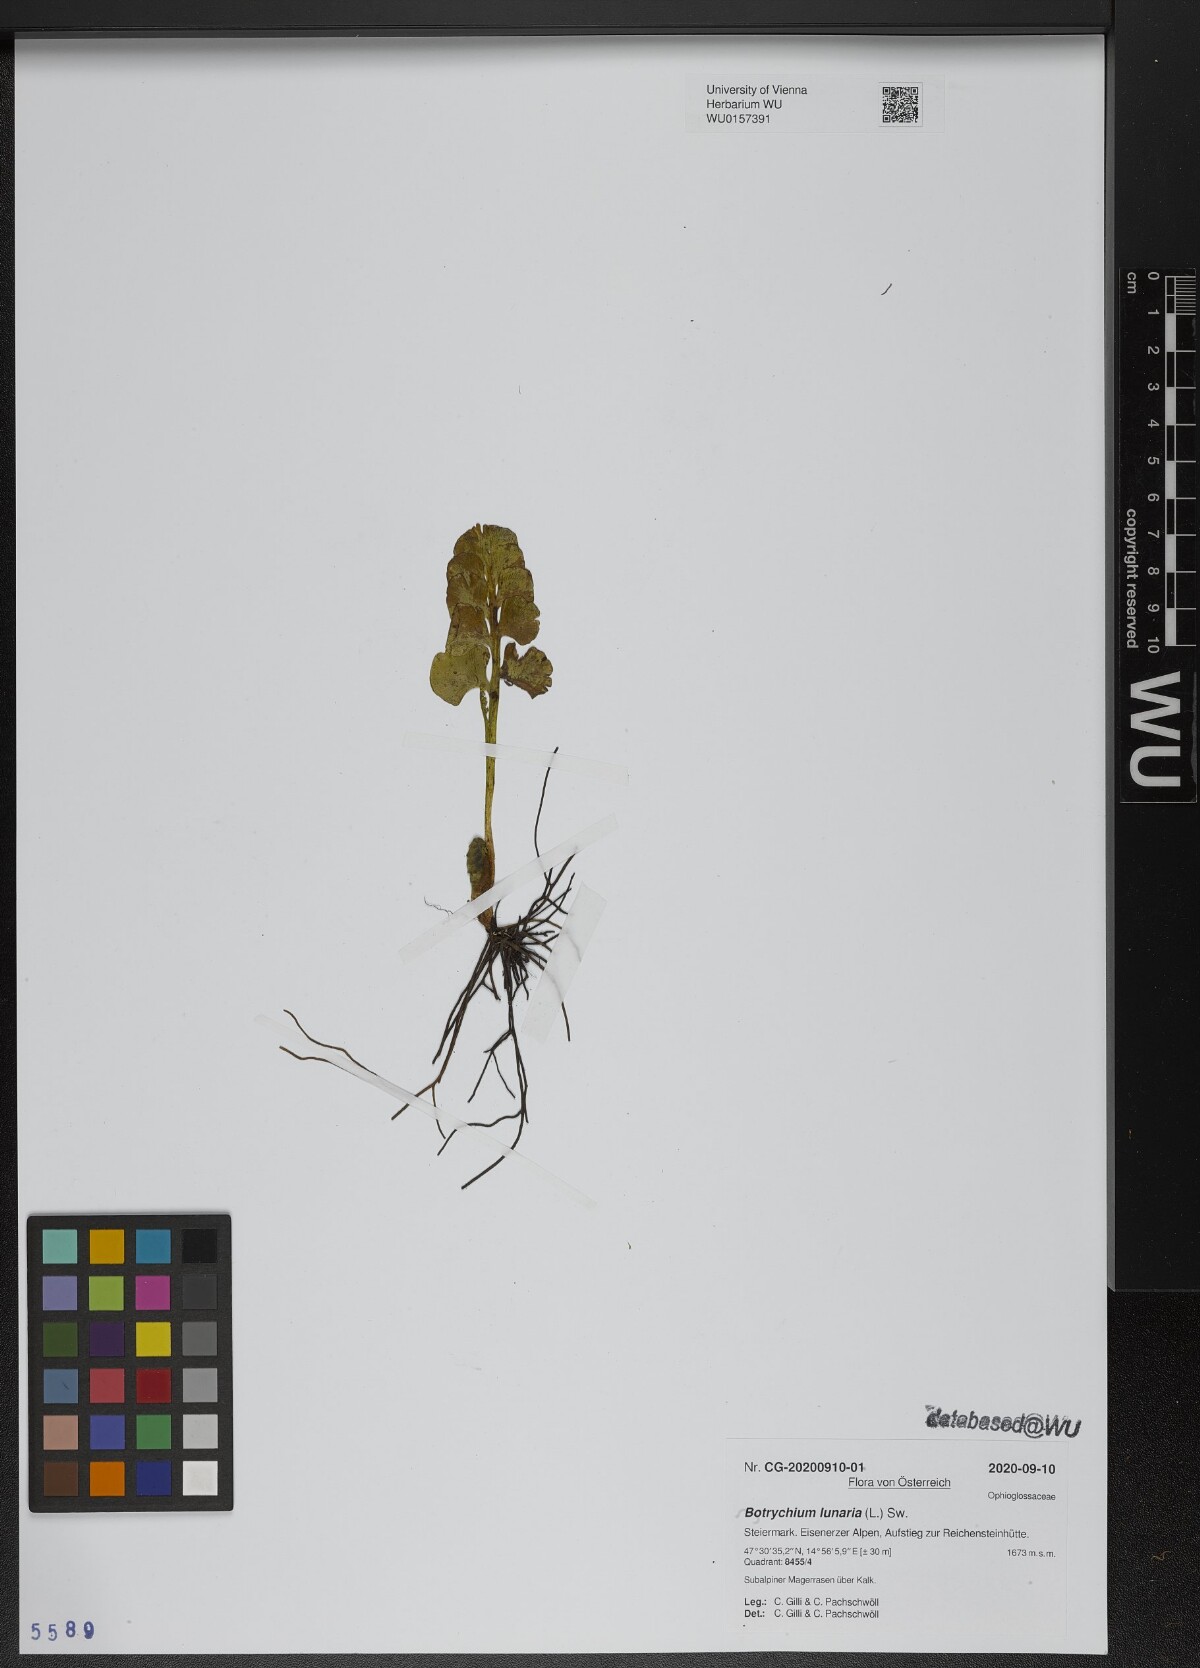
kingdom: Plantae
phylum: Tracheophyta
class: Polypodiopsida
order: Ophioglossales
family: Ophioglossaceae
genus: Botrychium
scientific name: Botrychium lunaria
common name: Moonwort
